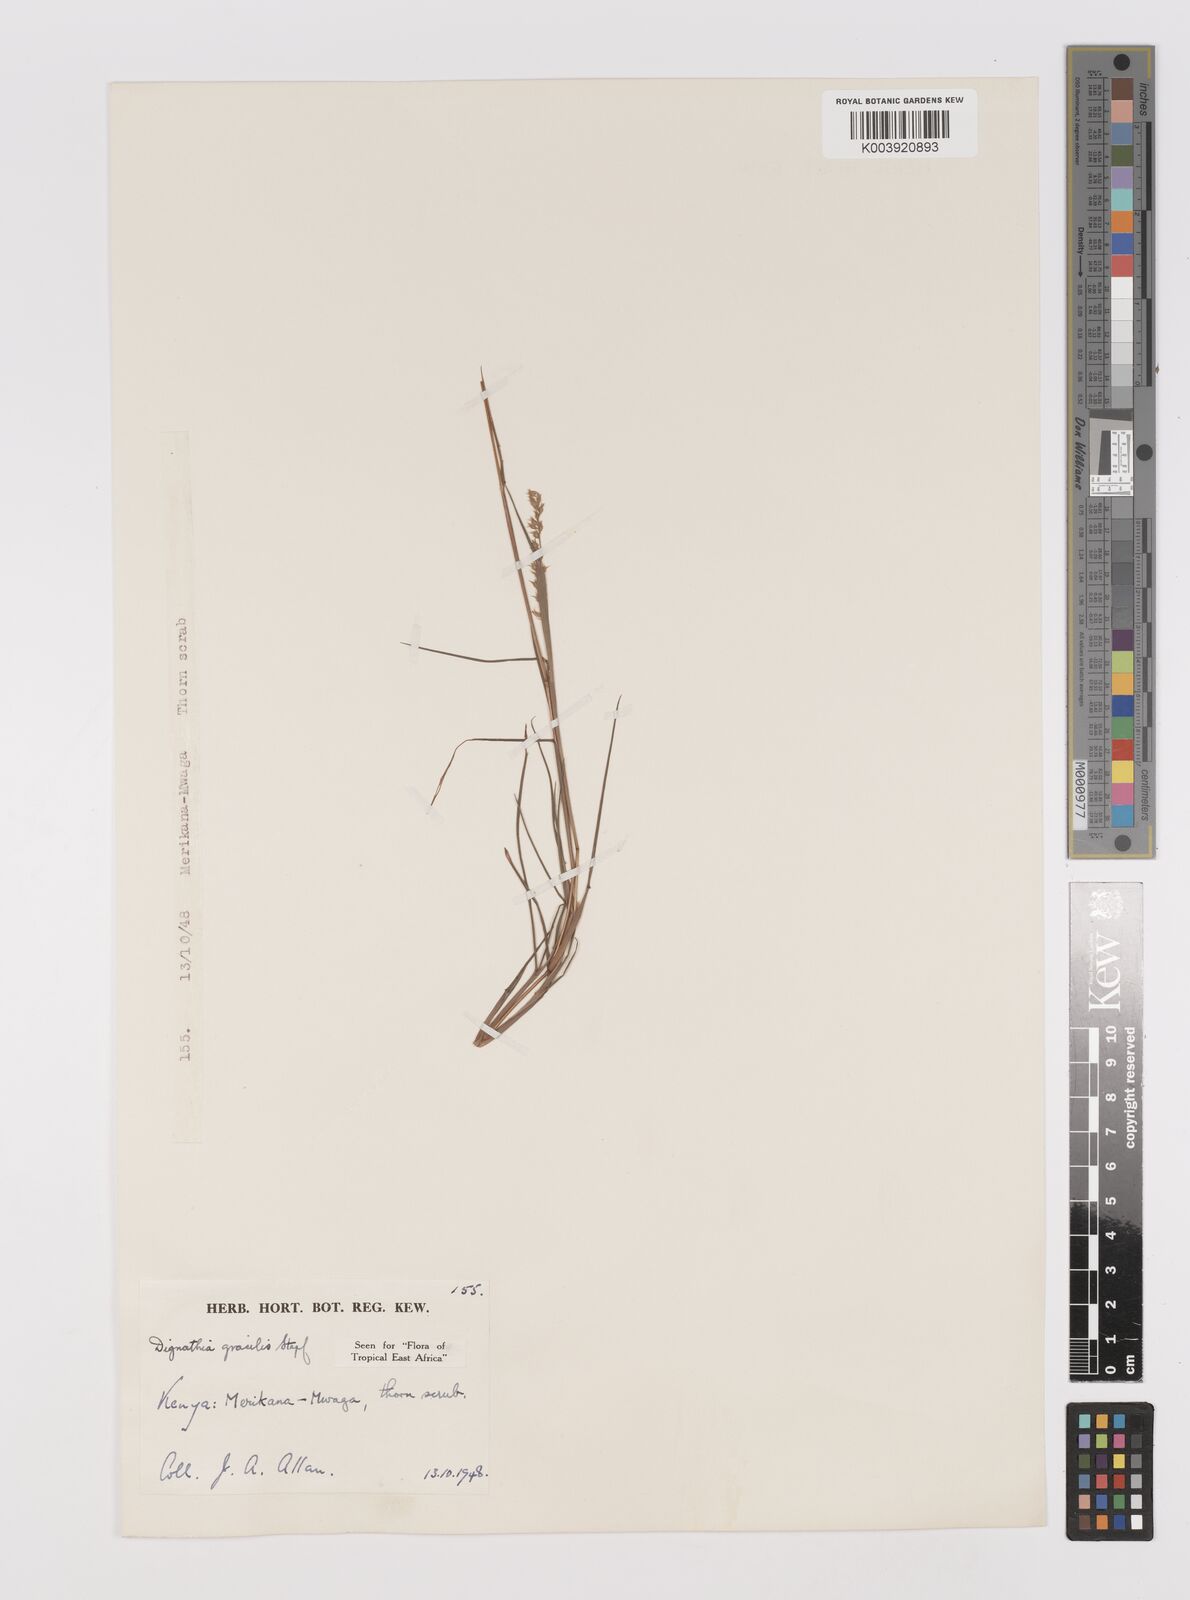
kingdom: Plantae
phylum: Tracheophyta
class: Liliopsida
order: Poales
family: Poaceae
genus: Dignathia
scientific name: Dignathia gracilis
